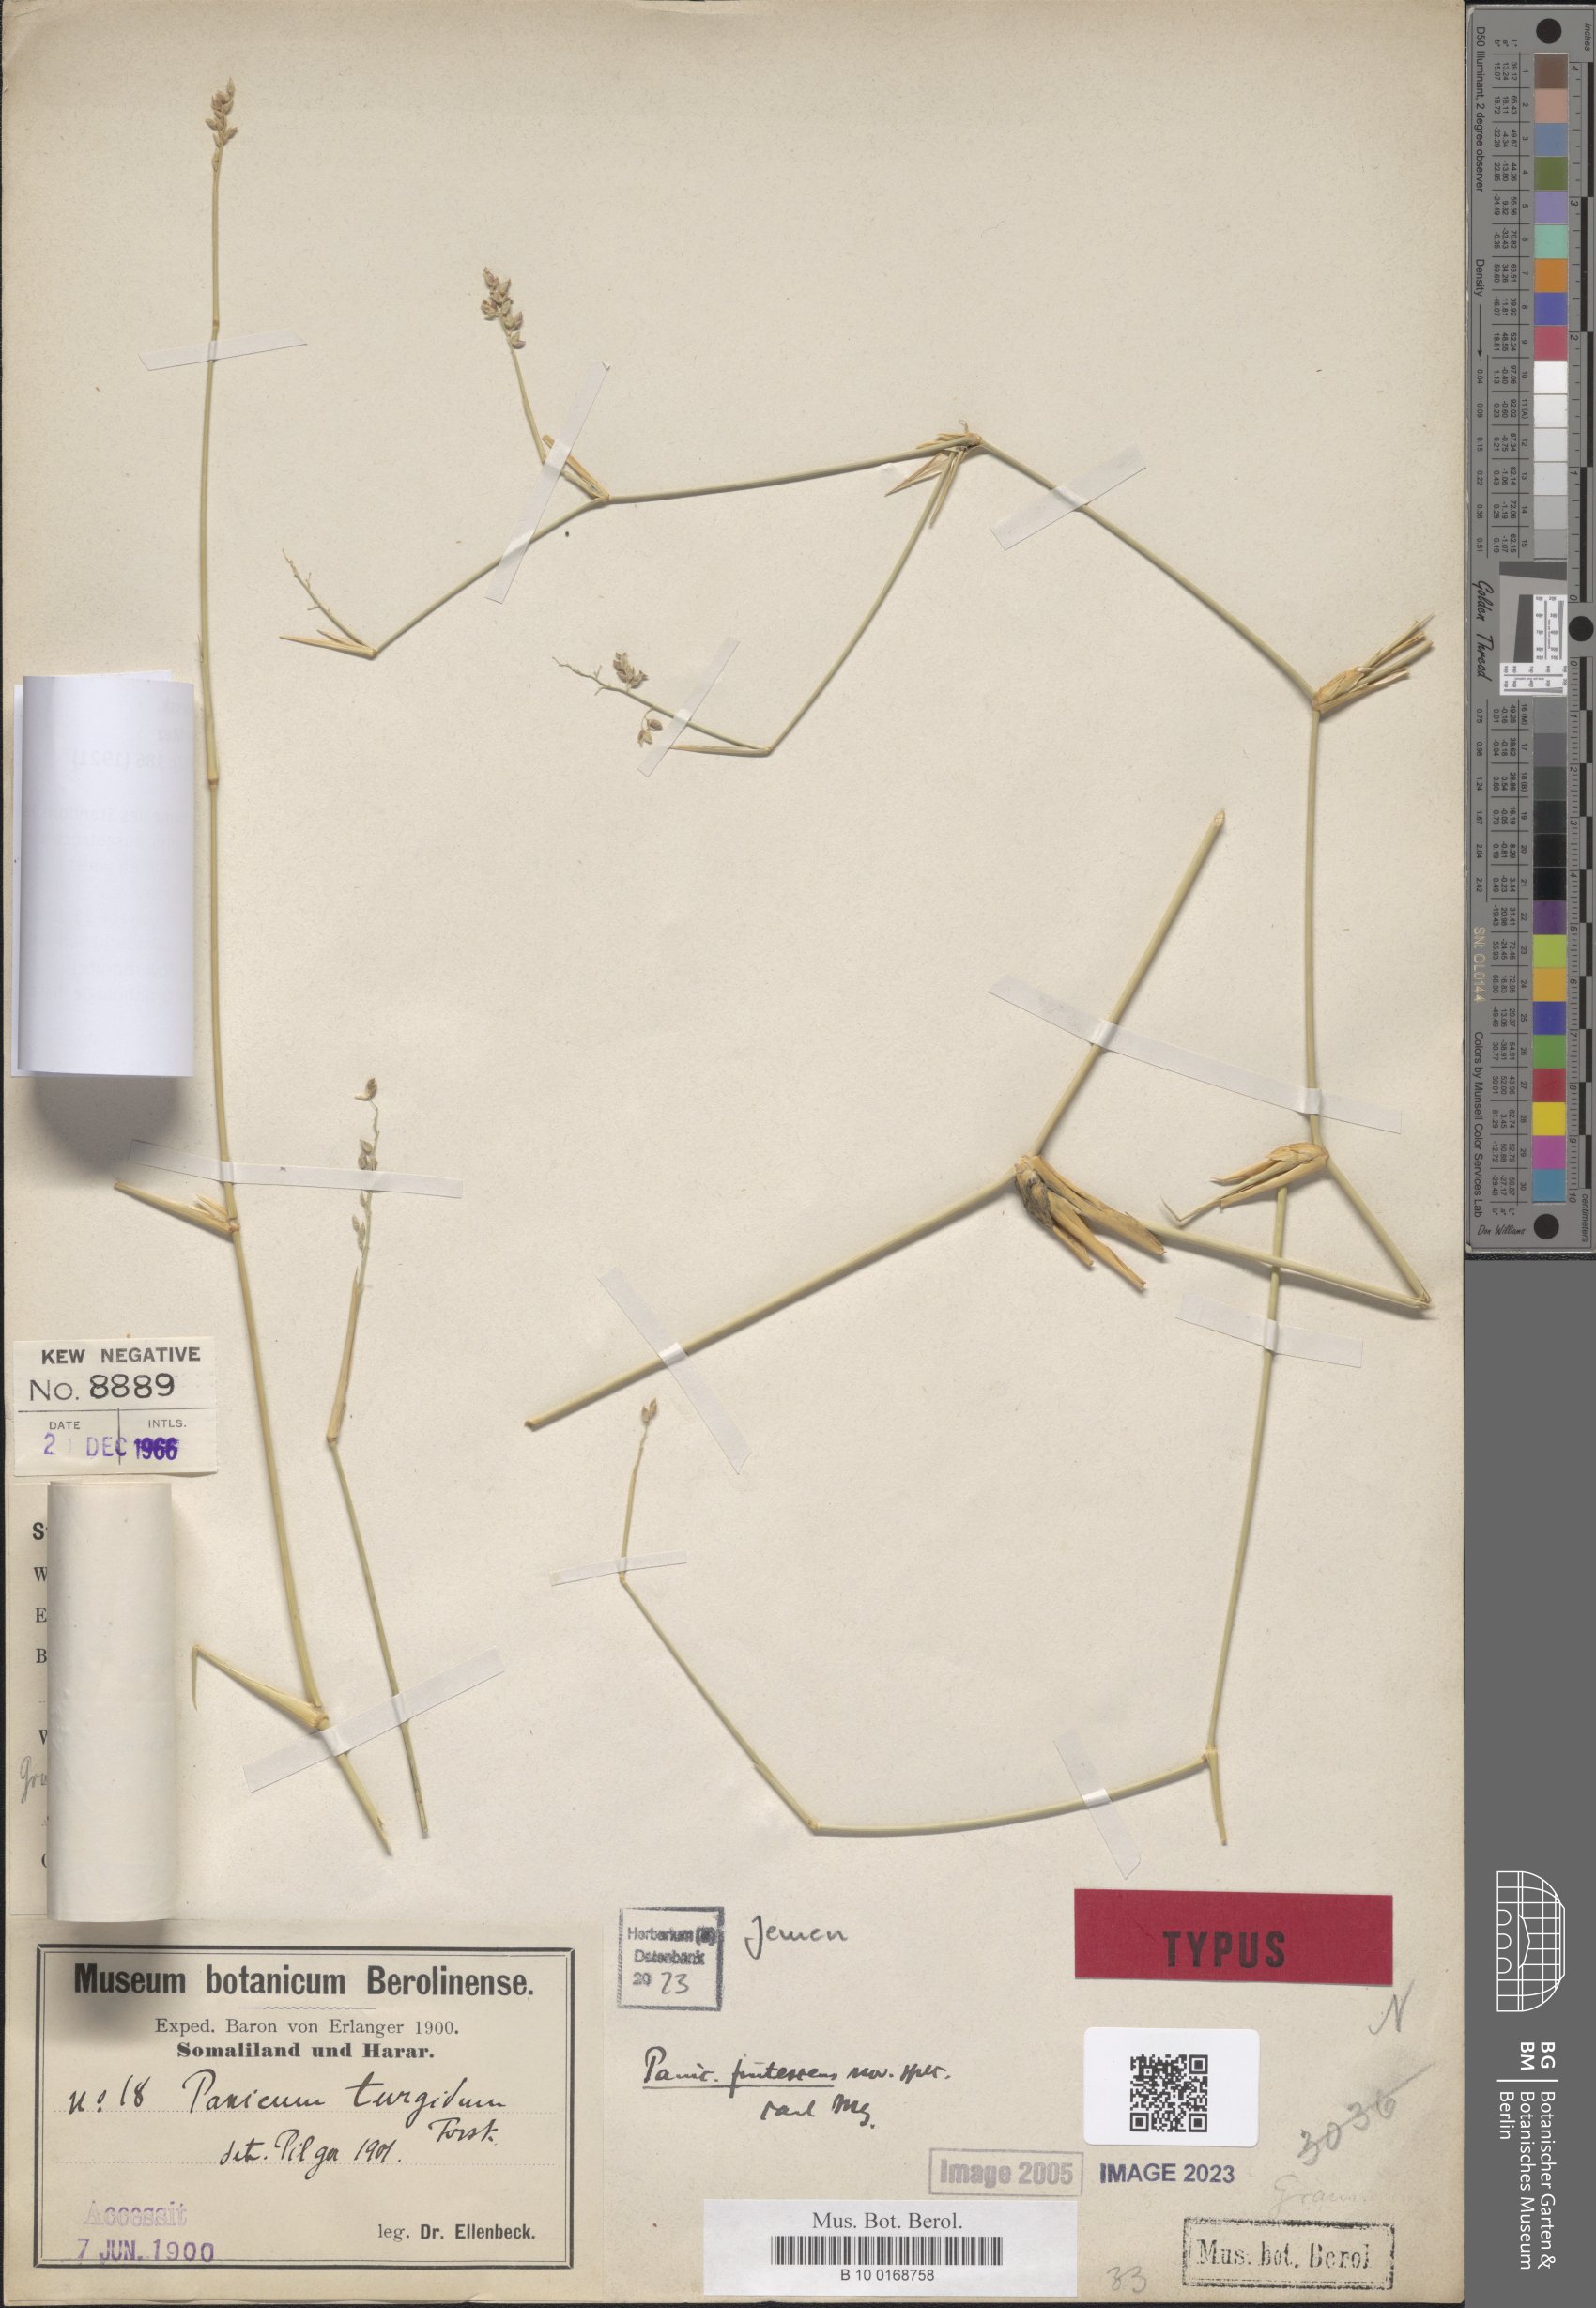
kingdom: Plantae
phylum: Tracheophyta
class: Liliopsida
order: Poales
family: Poaceae
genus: Panicum
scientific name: Panicum turgidum
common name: Desert grass
